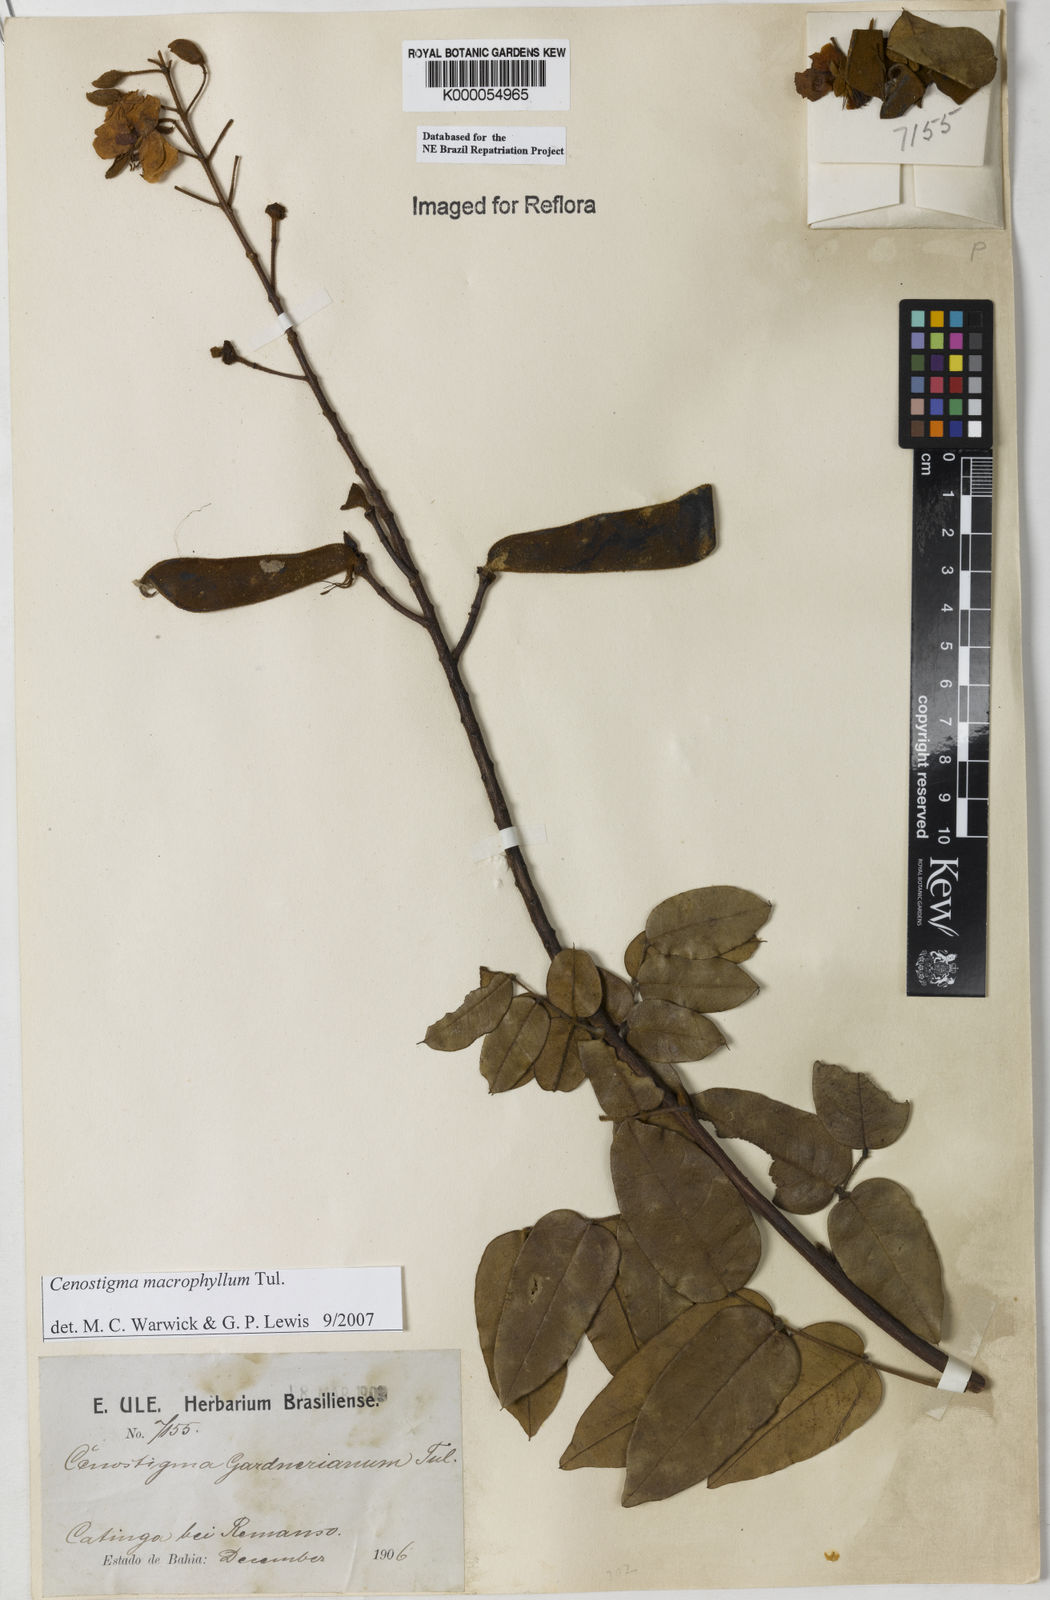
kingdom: Plantae
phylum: Tracheophyta
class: Magnoliopsida
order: Fabales
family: Fabaceae
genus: Cenostigma
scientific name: Cenostigma macrophyllum
